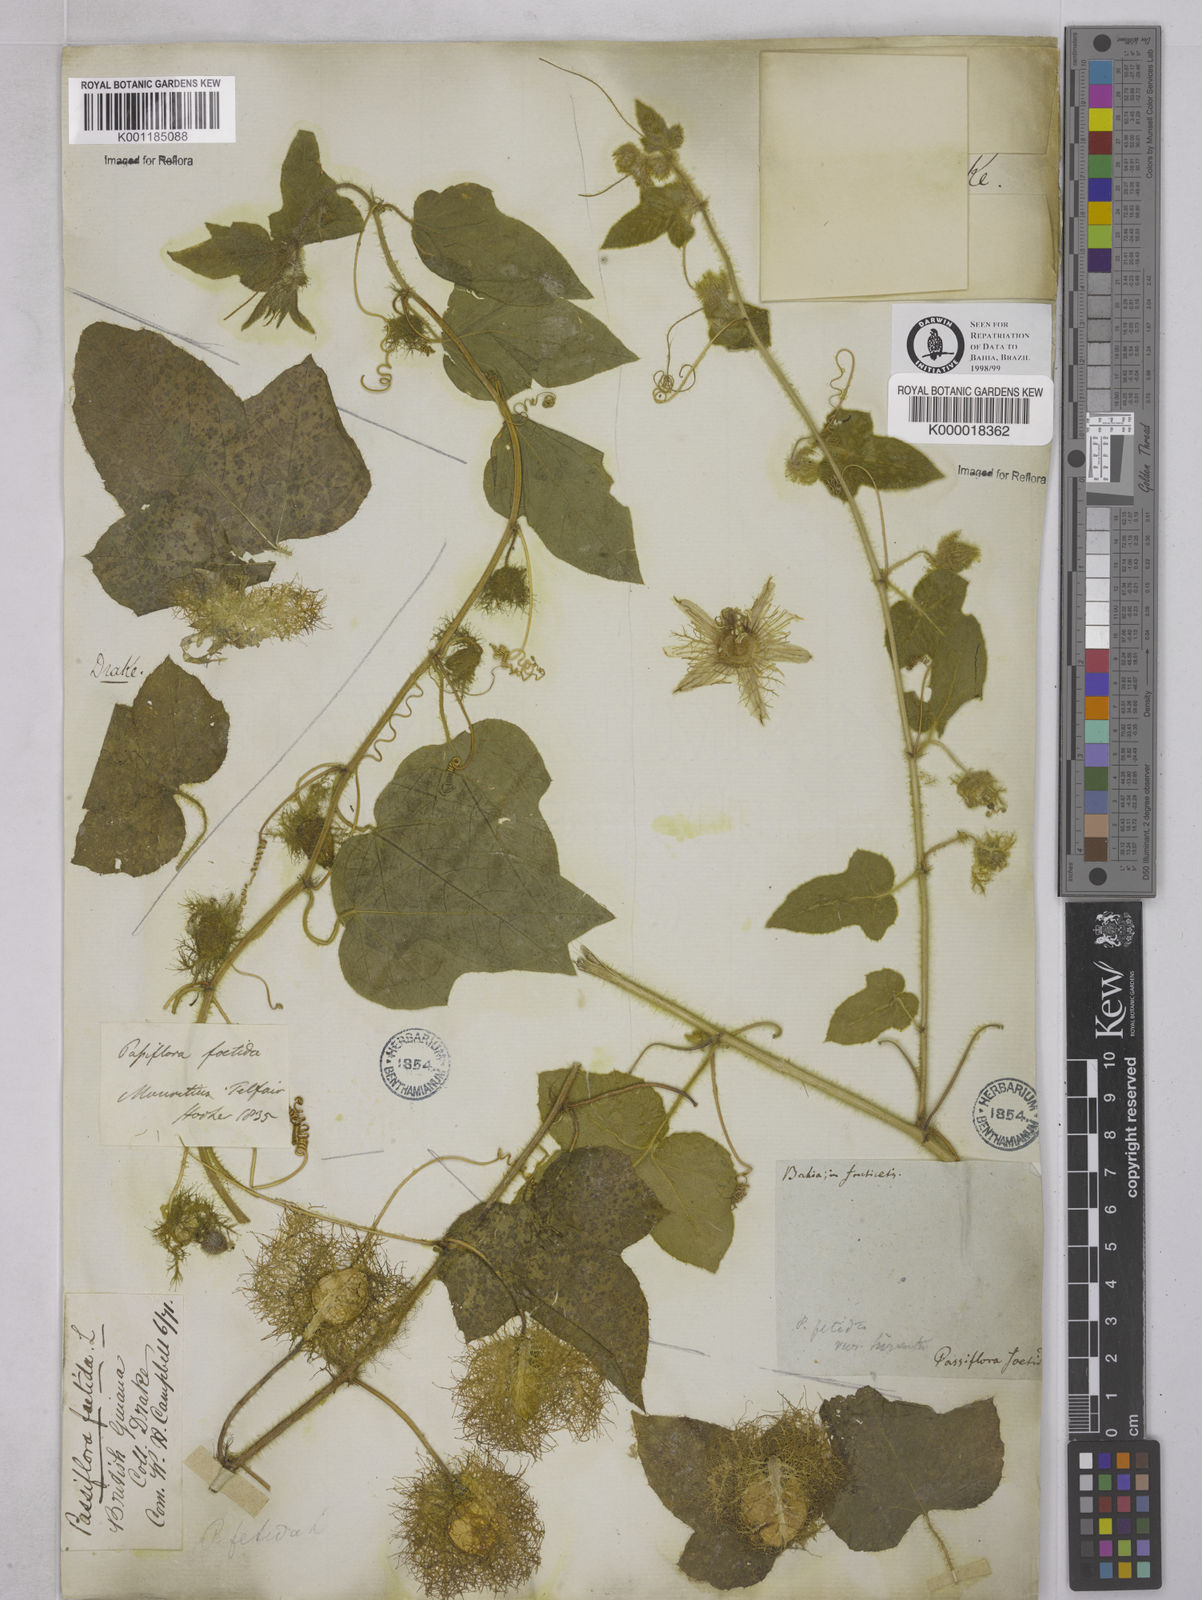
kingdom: Plantae
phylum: Tracheophyta
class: Magnoliopsida
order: Malpighiales
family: Passifloraceae
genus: Passiflora
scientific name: Passiflora foetida
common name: Fetid passionflower
